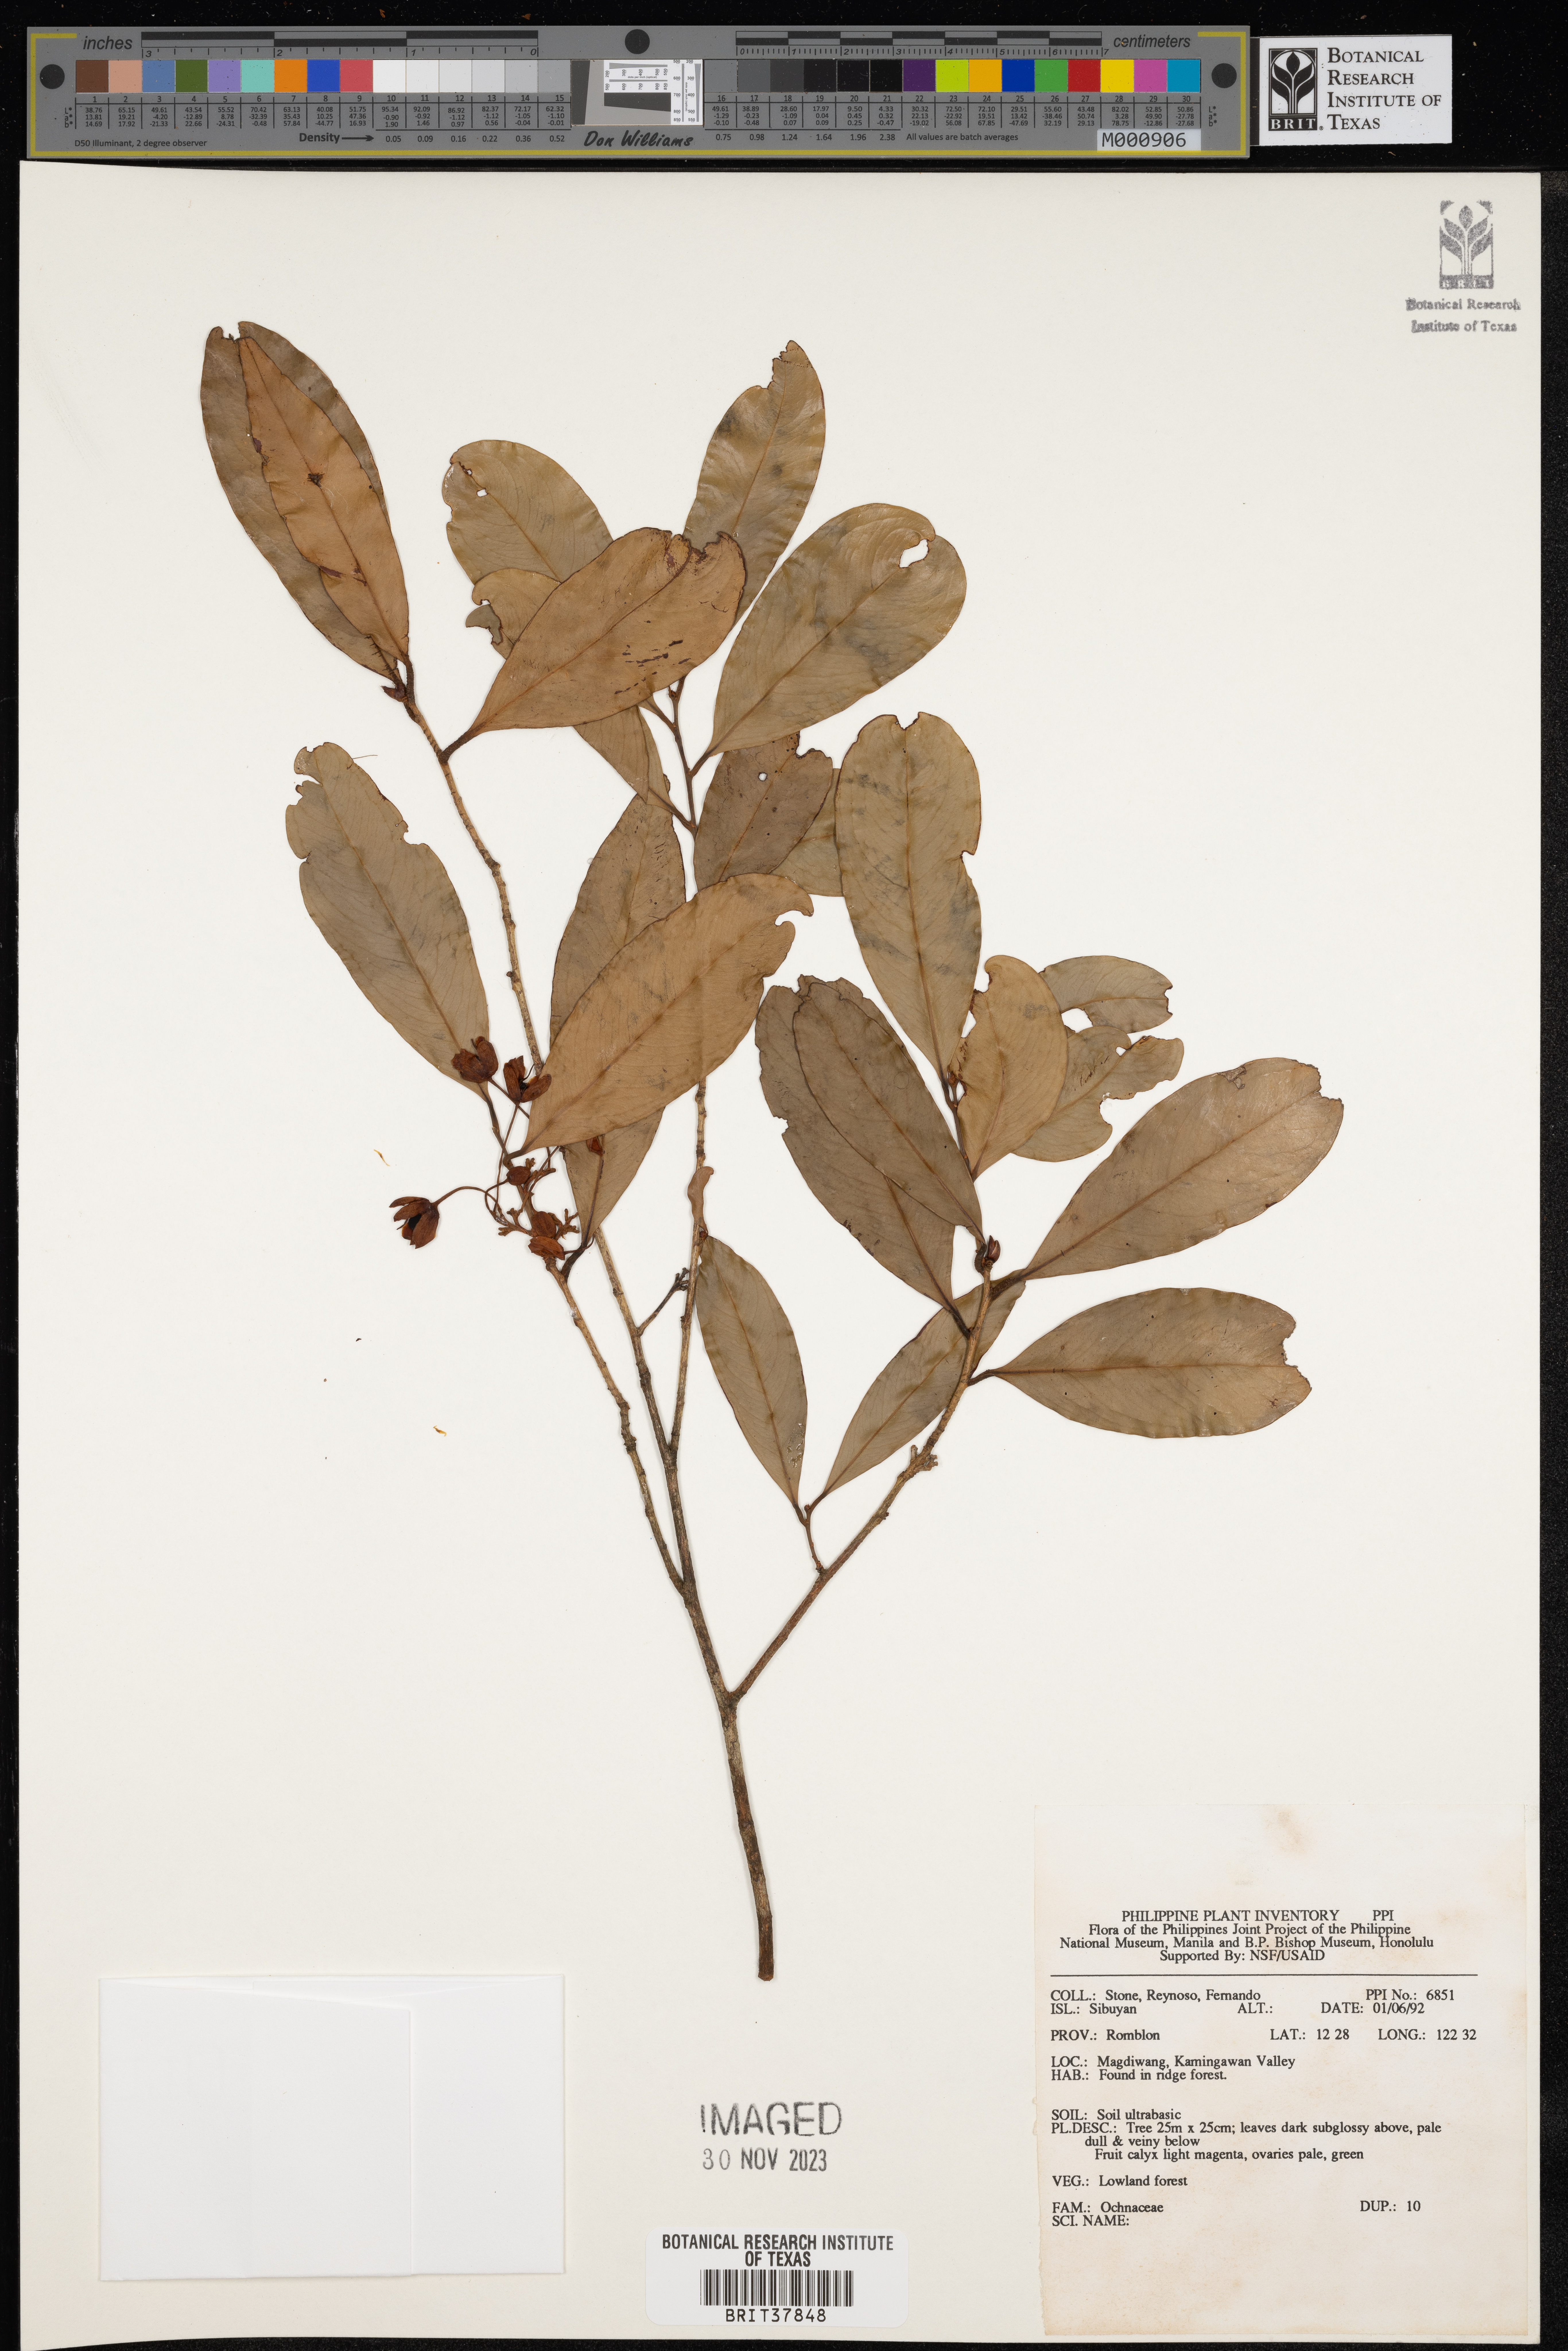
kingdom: Plantae
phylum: Tracheophyta
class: Magnoliopsida
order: Malpighiales
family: Ochnaceae
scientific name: Ochnaceae
